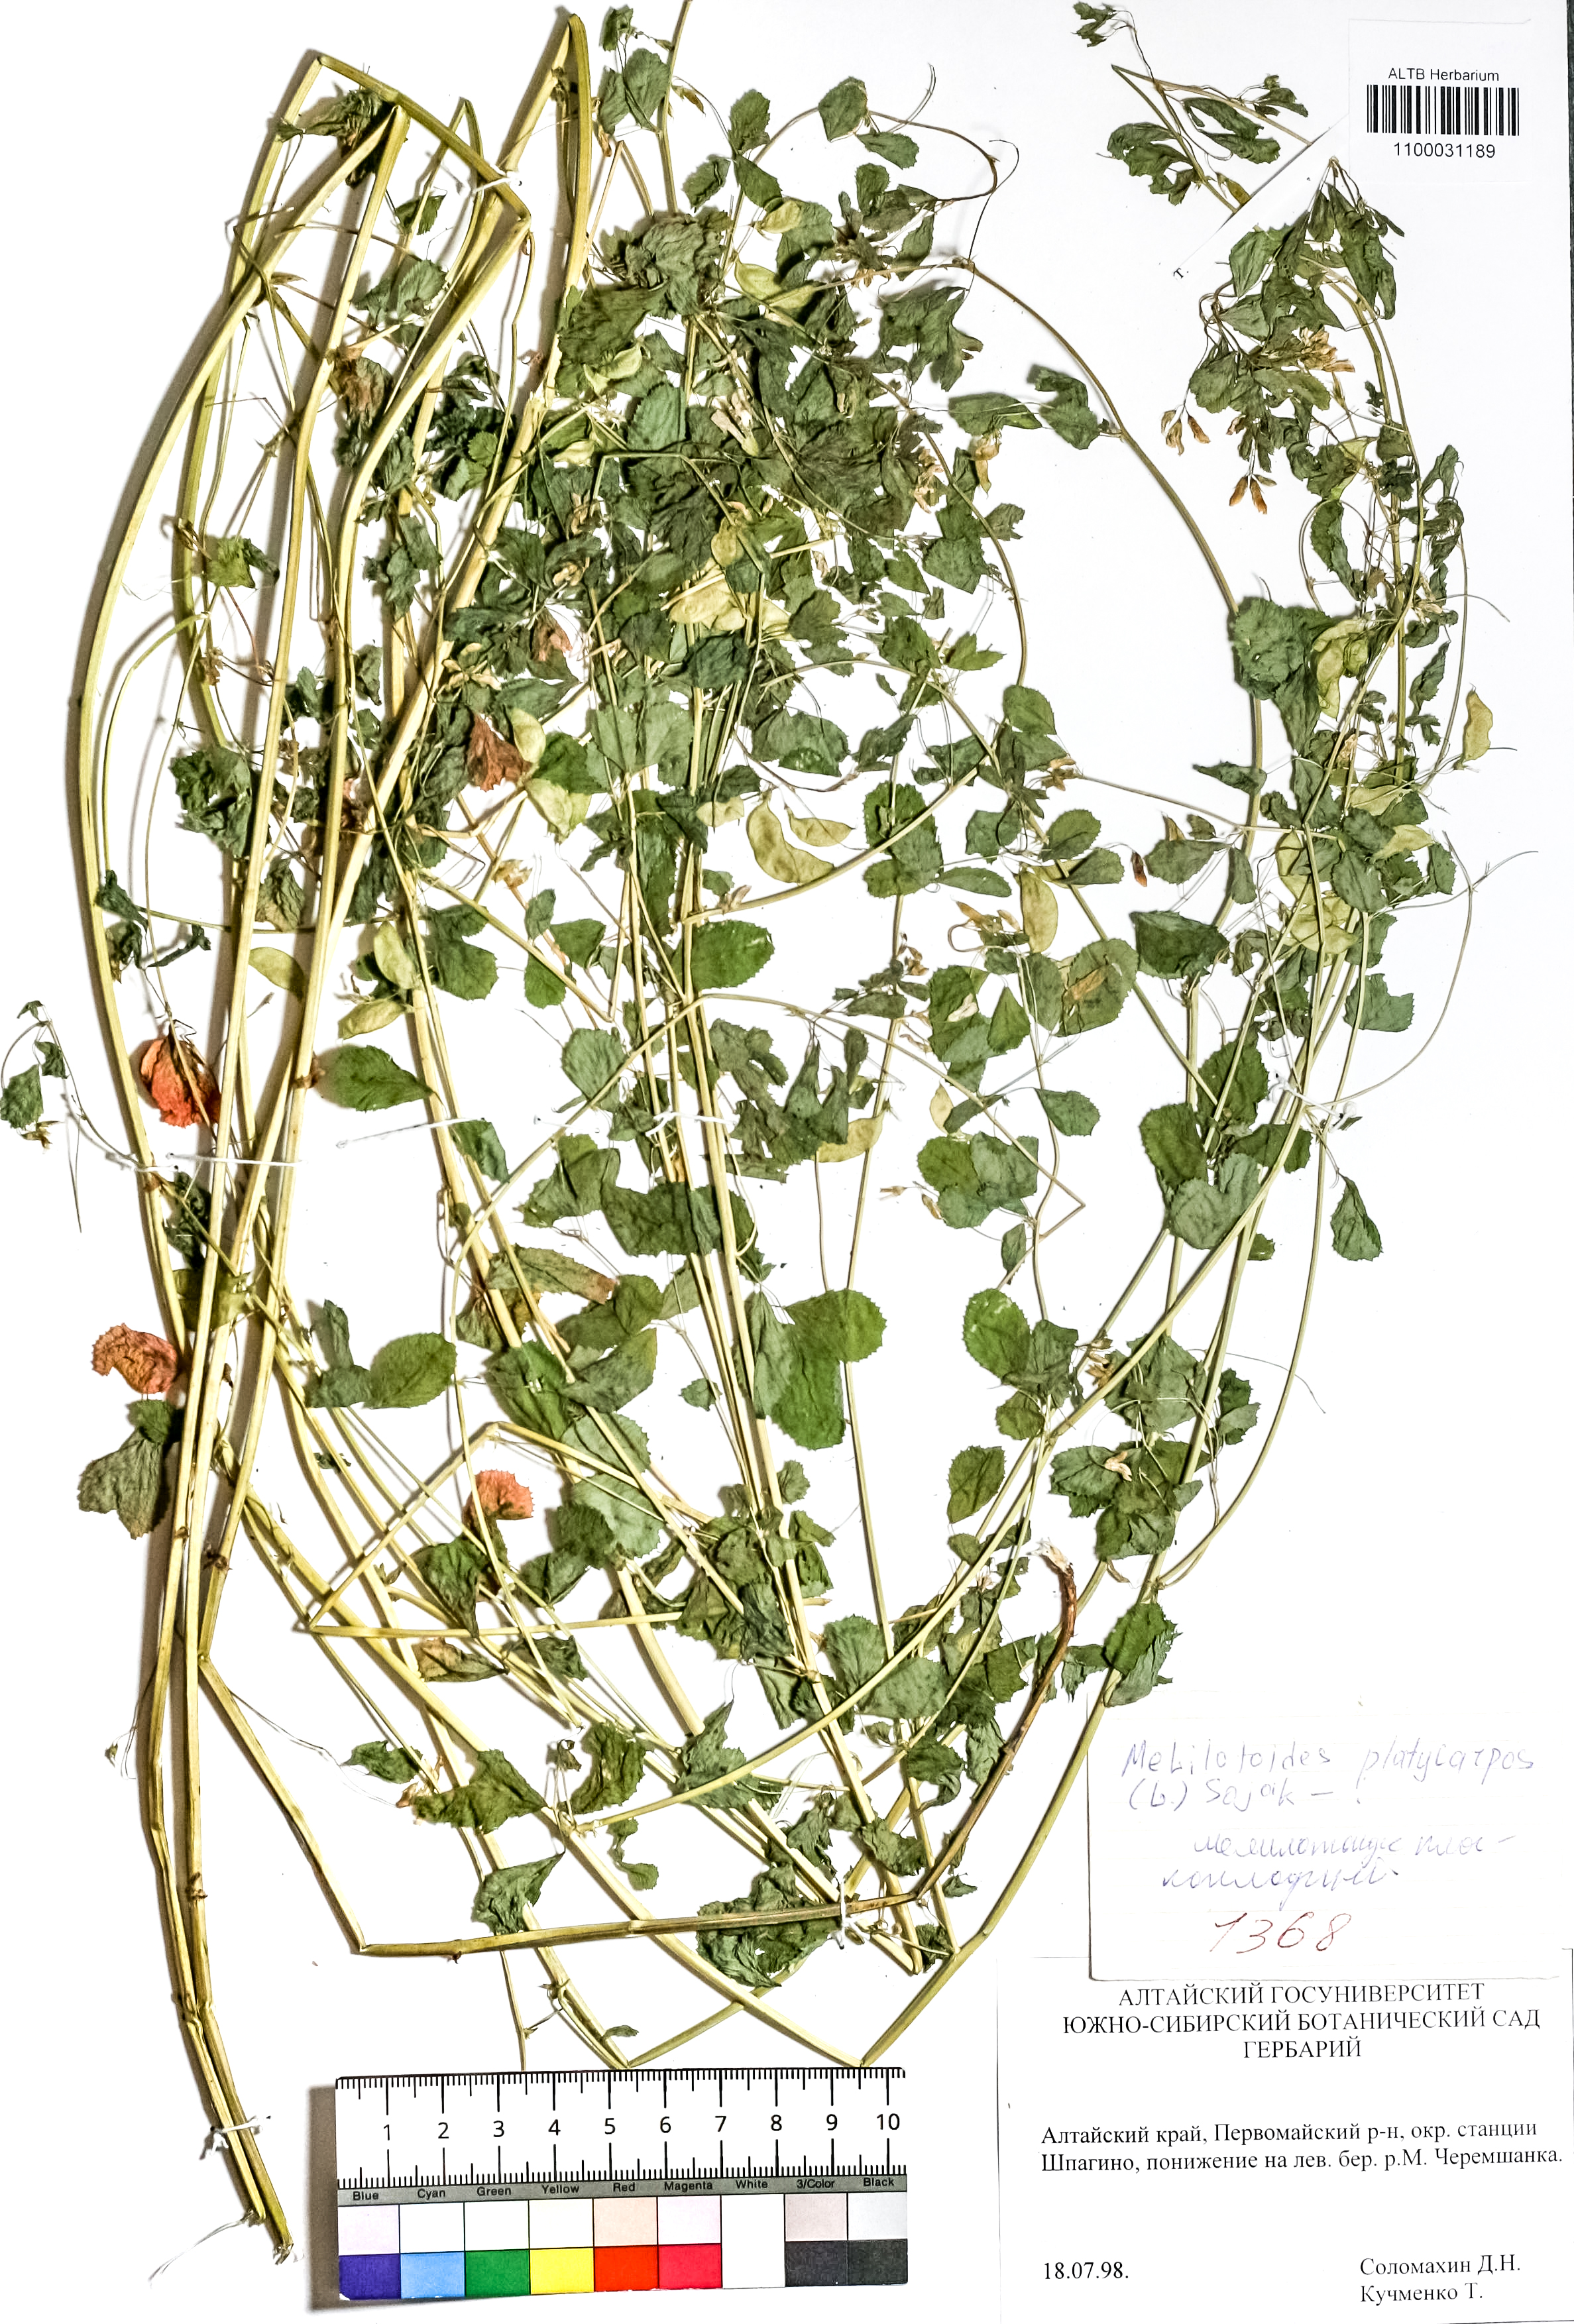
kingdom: Plantae
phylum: Tracheophyta
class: Magnoliopsida
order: Fabales
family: Fabaceae
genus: Medicago
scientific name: Medicago platycarpos
